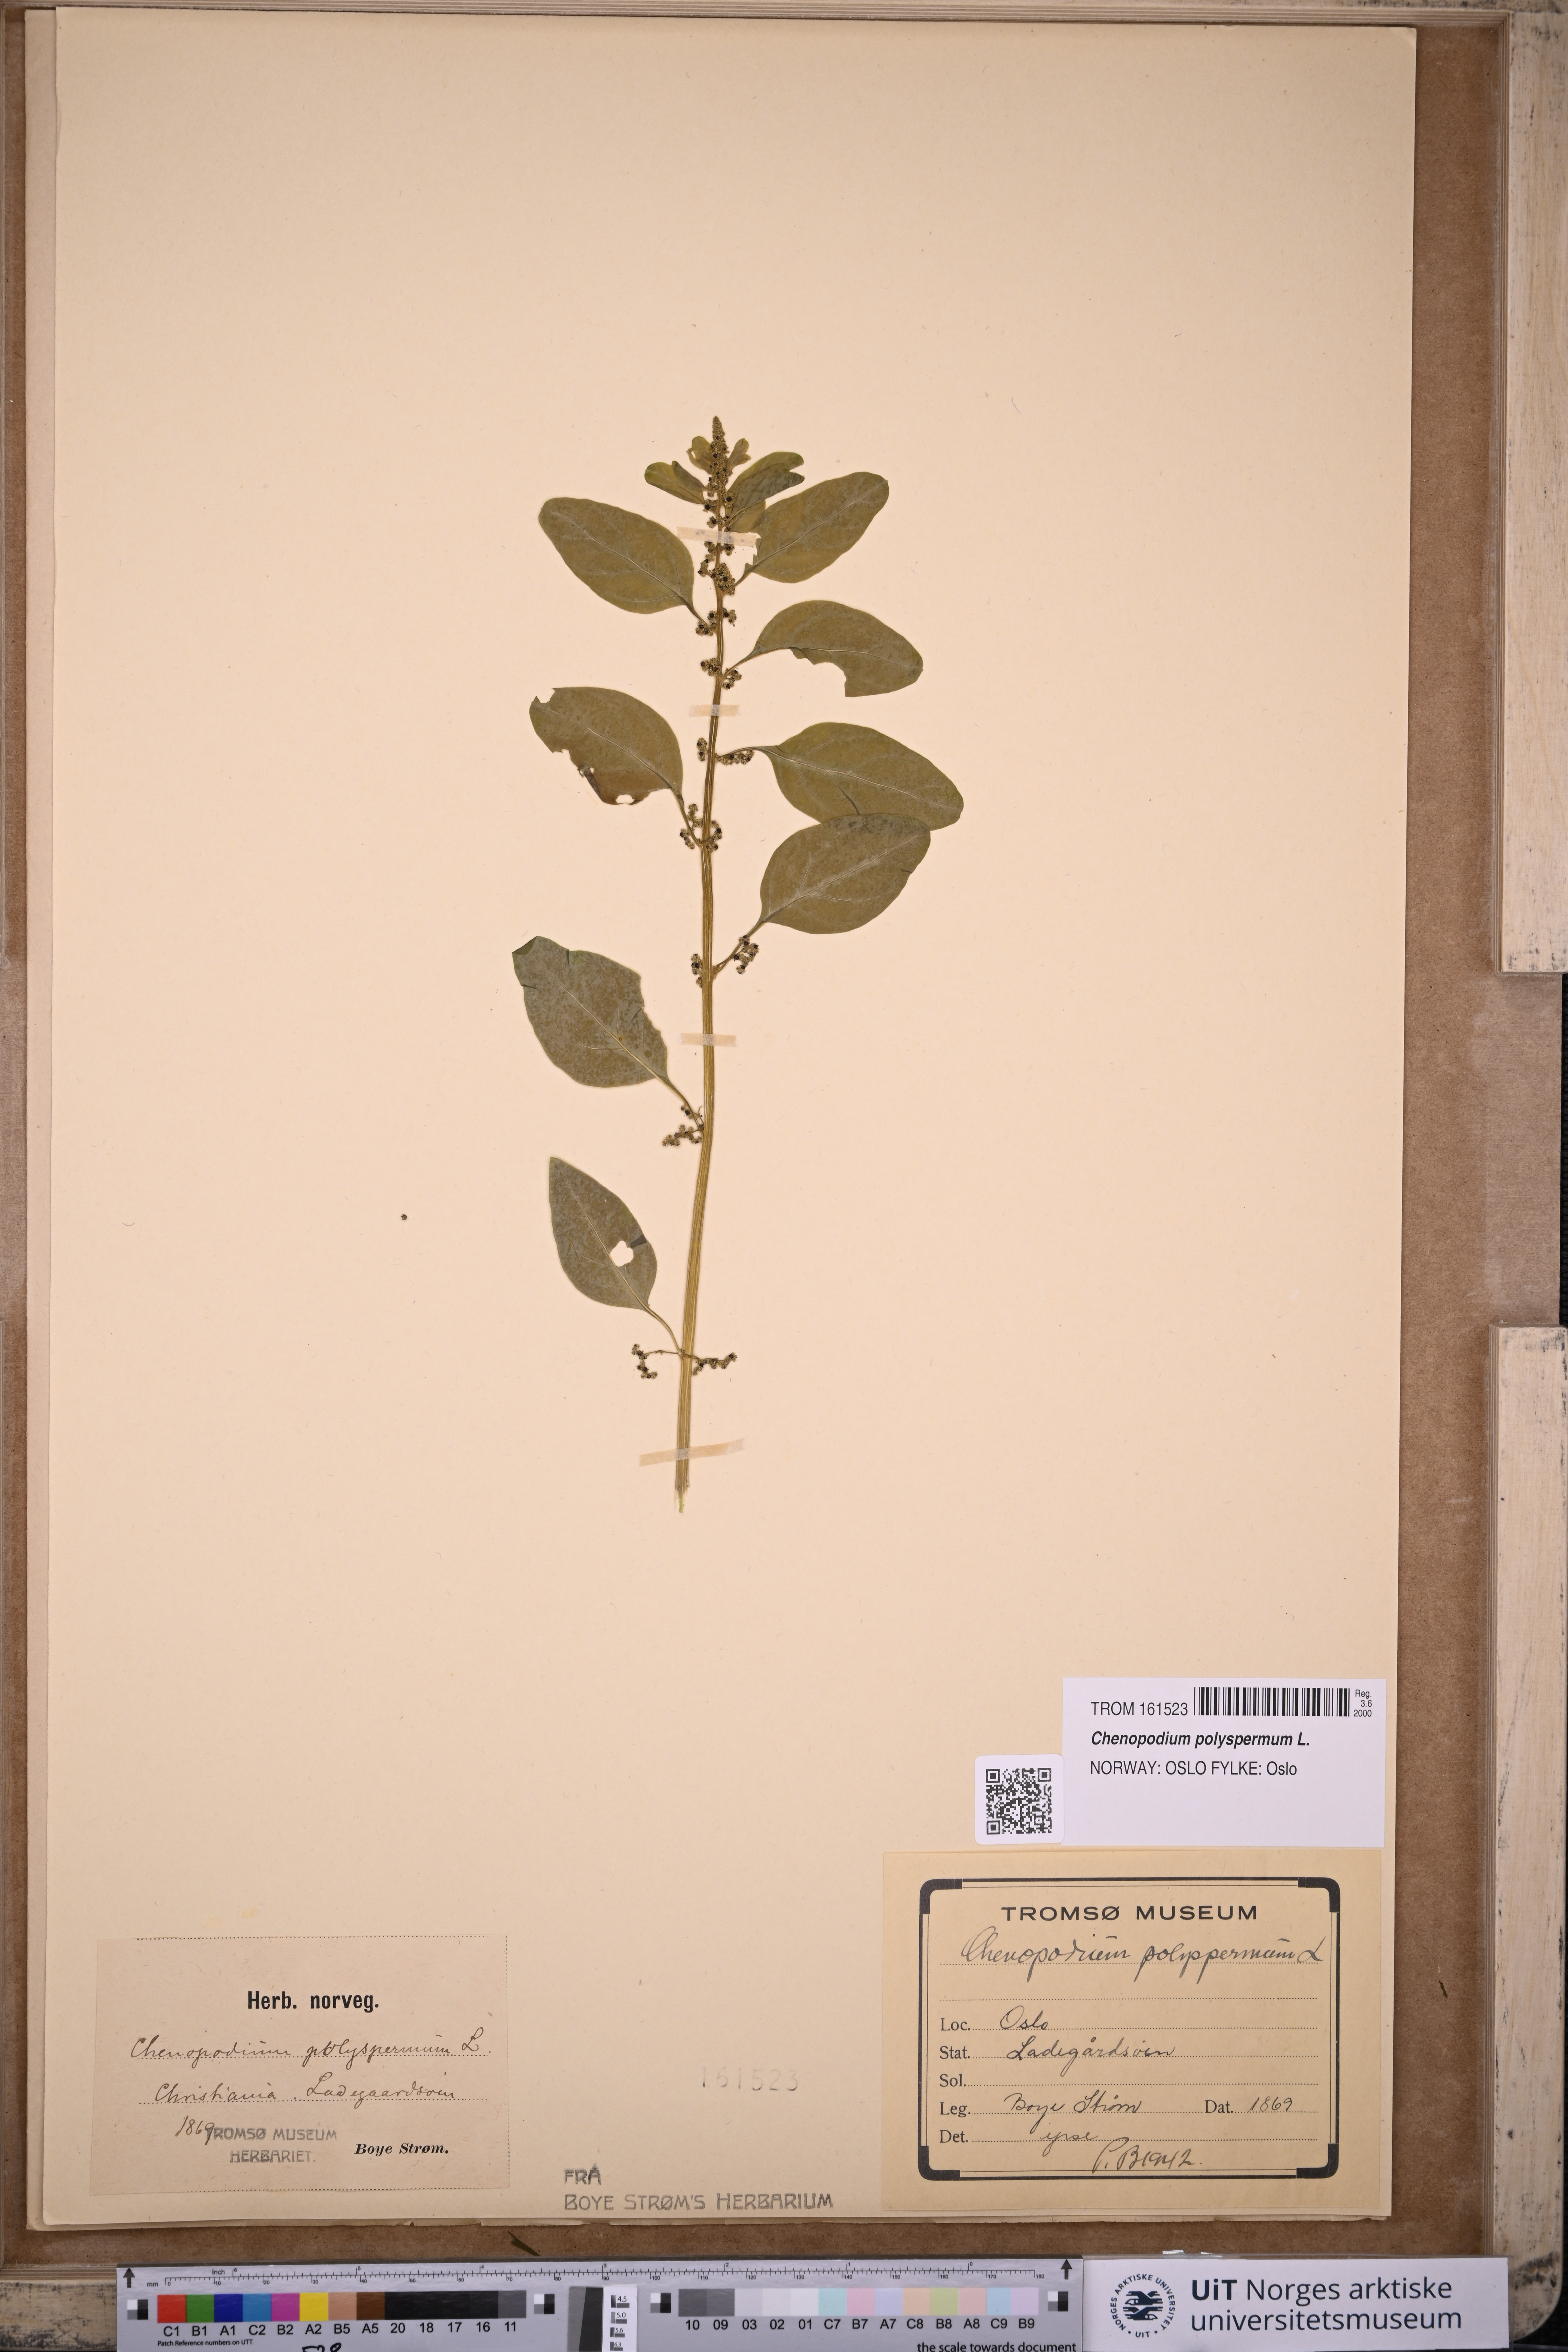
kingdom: Plantae
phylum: Tracheophyta
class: Magnoliopsida
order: Caryophyllales
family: Amaranthaceae
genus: Lipandra
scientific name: Lipandra polysperma
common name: Many-seed goosefoot
